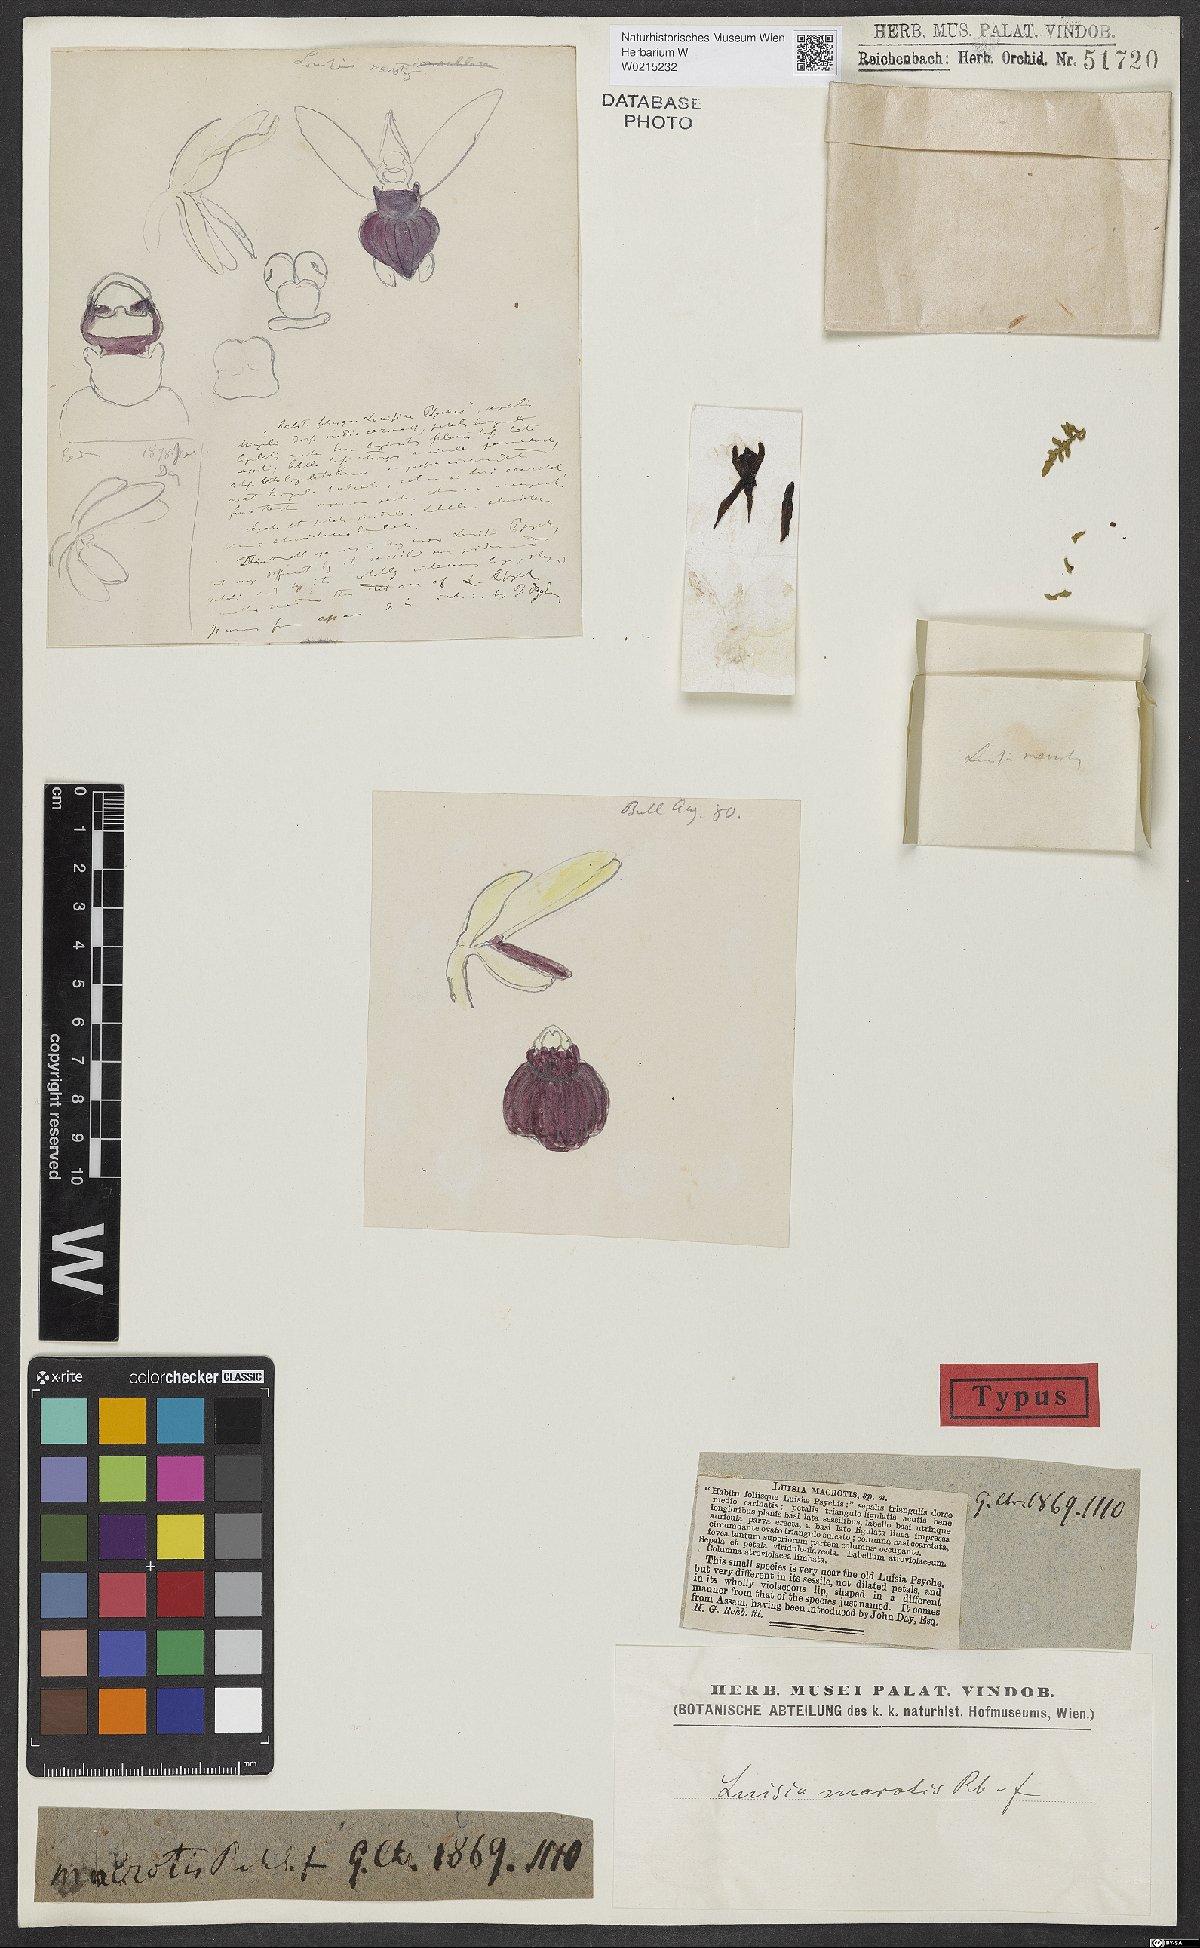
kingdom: Plantae
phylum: Tracheophyta
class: Liliopsida
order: Asparagales
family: Orchidaceae
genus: Luisia
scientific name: Luisia macrotis
